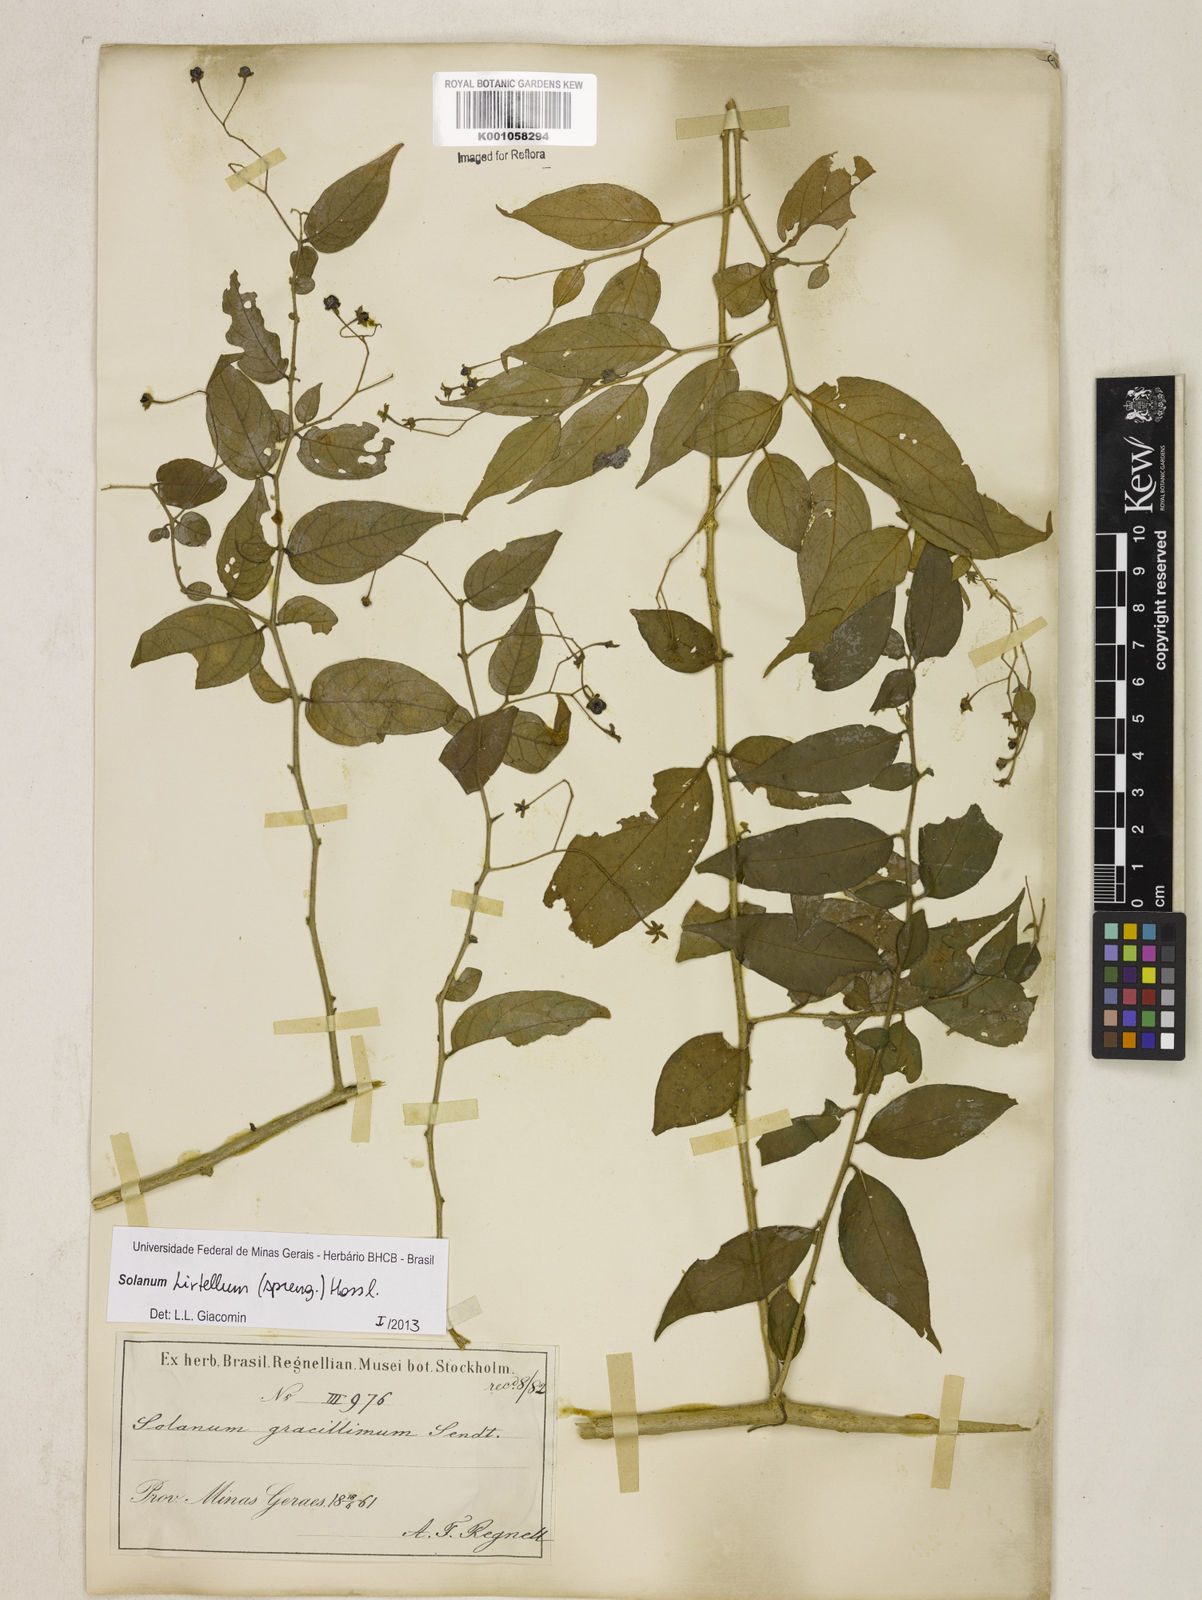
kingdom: Plantae
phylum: Tracheophyta
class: Magnoliopsida
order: Solanales
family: Solanaceae
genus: Solanum
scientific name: Solanum hirtellum
